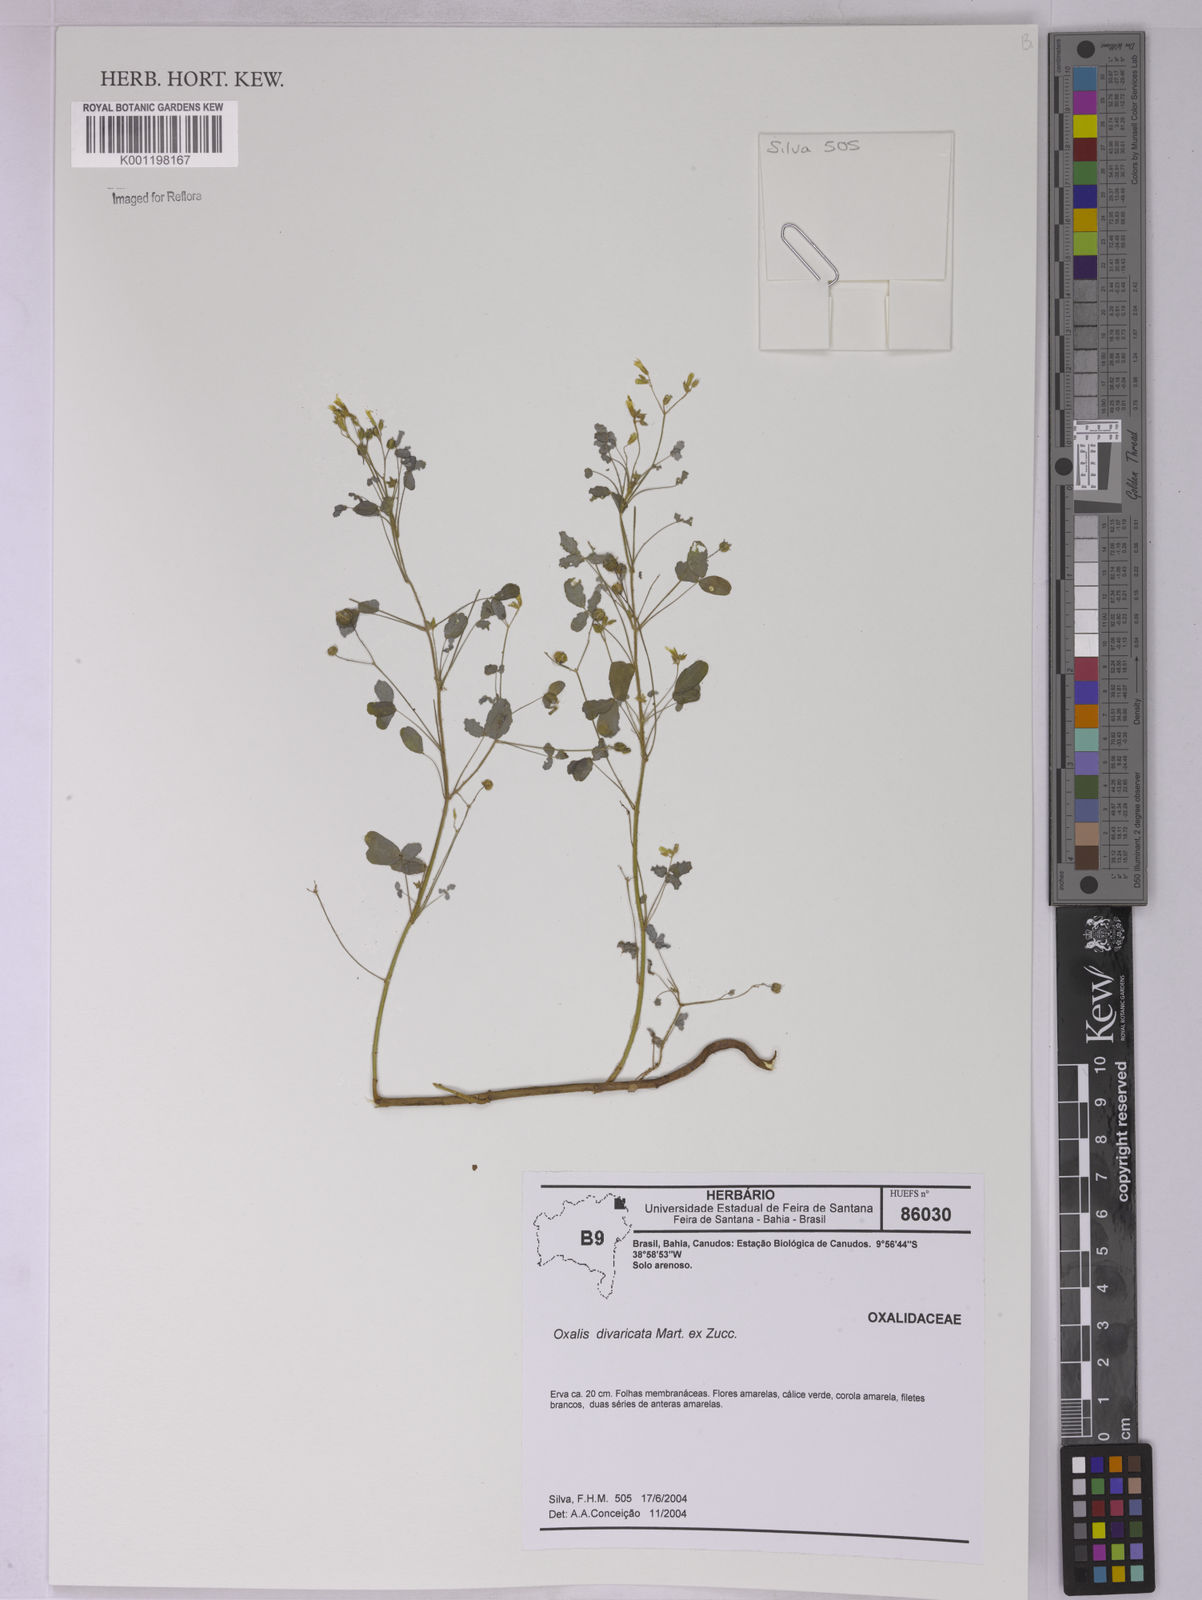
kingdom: Plantae
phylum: Tracheophyta
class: Magnoliopsida
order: Oxalidales
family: Oxalidaceae
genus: Oxalis
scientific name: Oxalis divaricata
